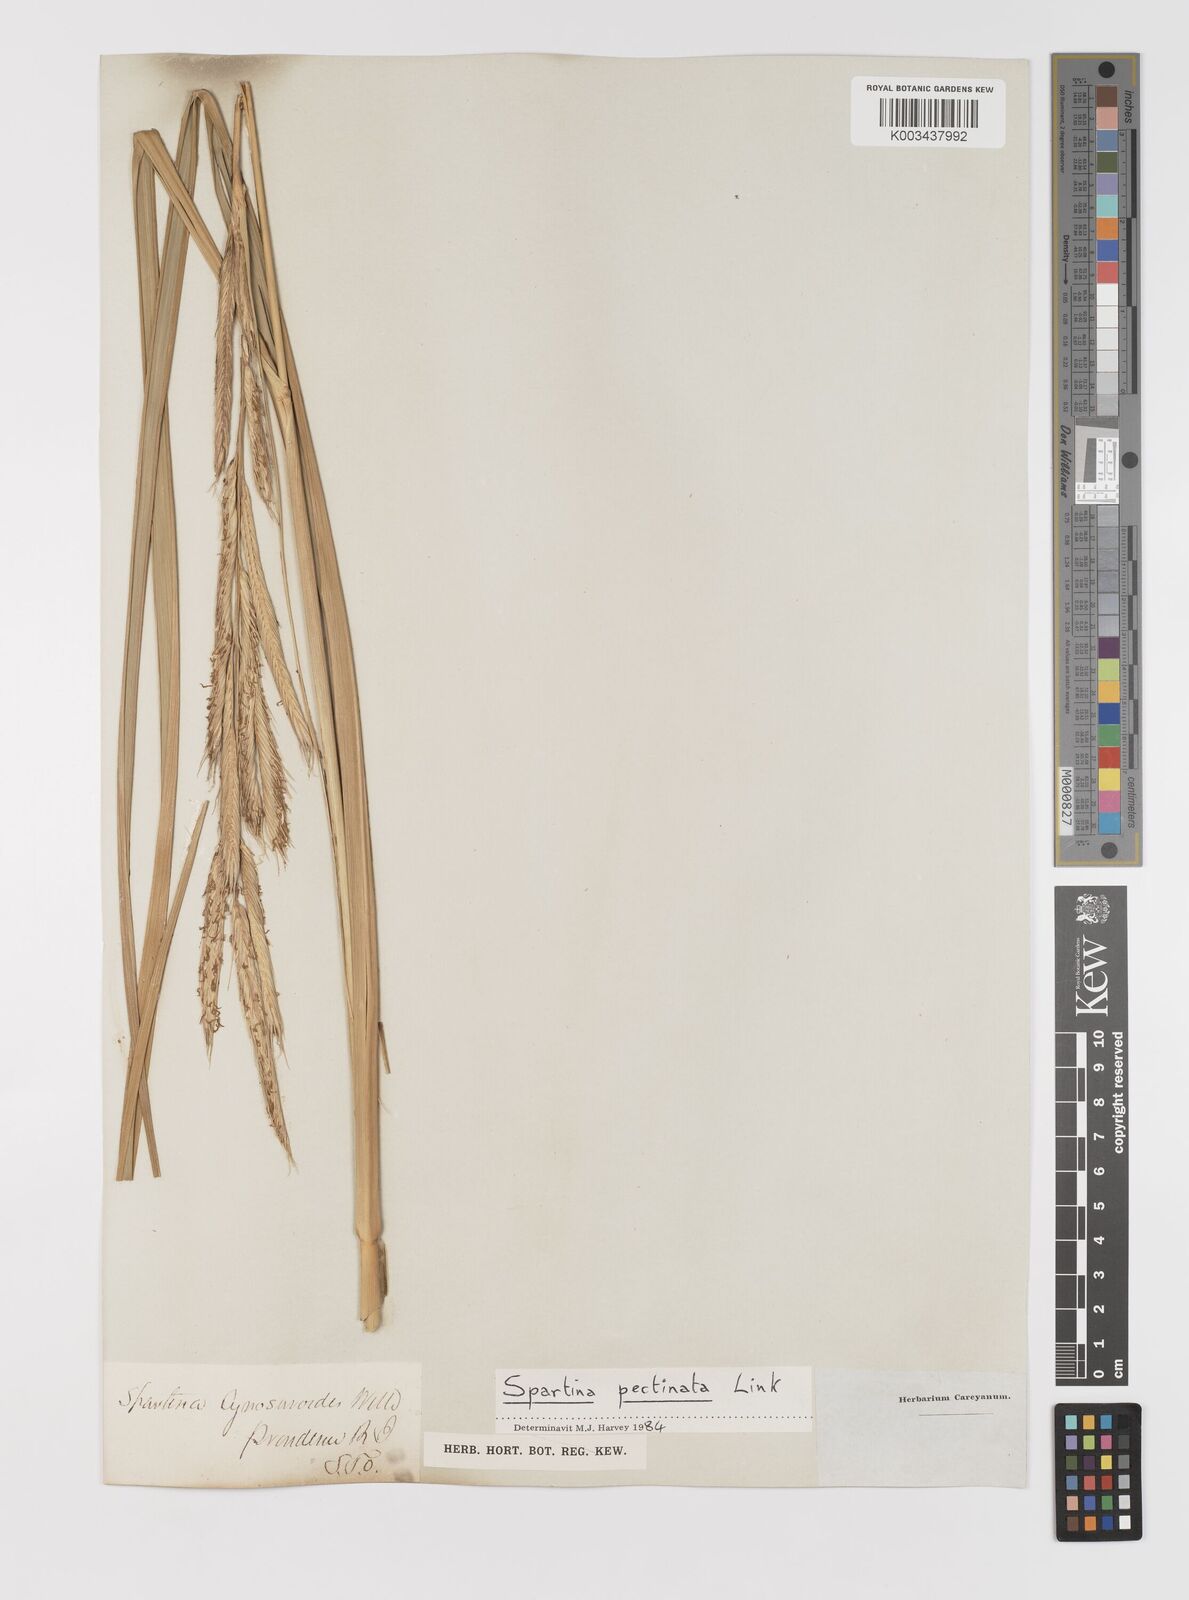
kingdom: Plantae
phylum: Tracheophyta
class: Liliopsida
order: Poales
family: Poaceae
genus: Sporobolus
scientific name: Sporobolus cynosuroides
